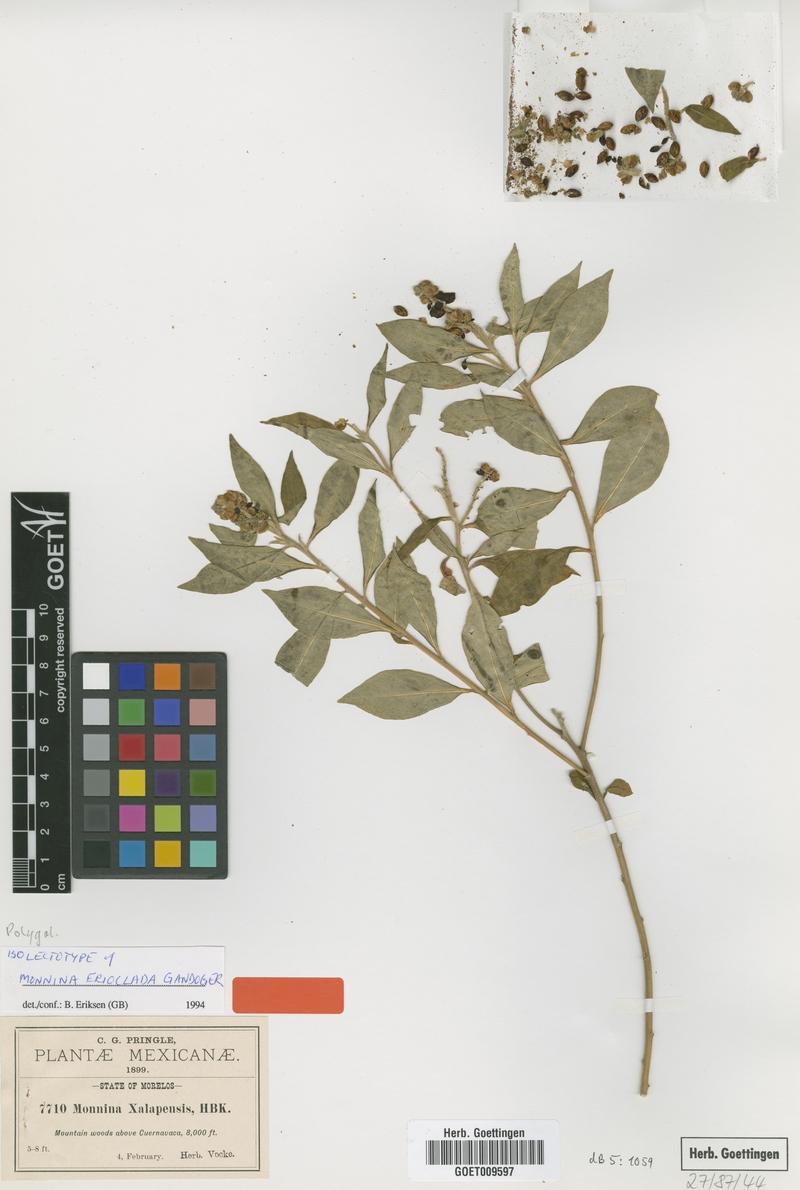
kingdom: Plantae
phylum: Tracheophyta
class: Magnoliopsida
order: Fabales
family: Polygalaceae
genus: Monnina
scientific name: Monnina ciliolata
